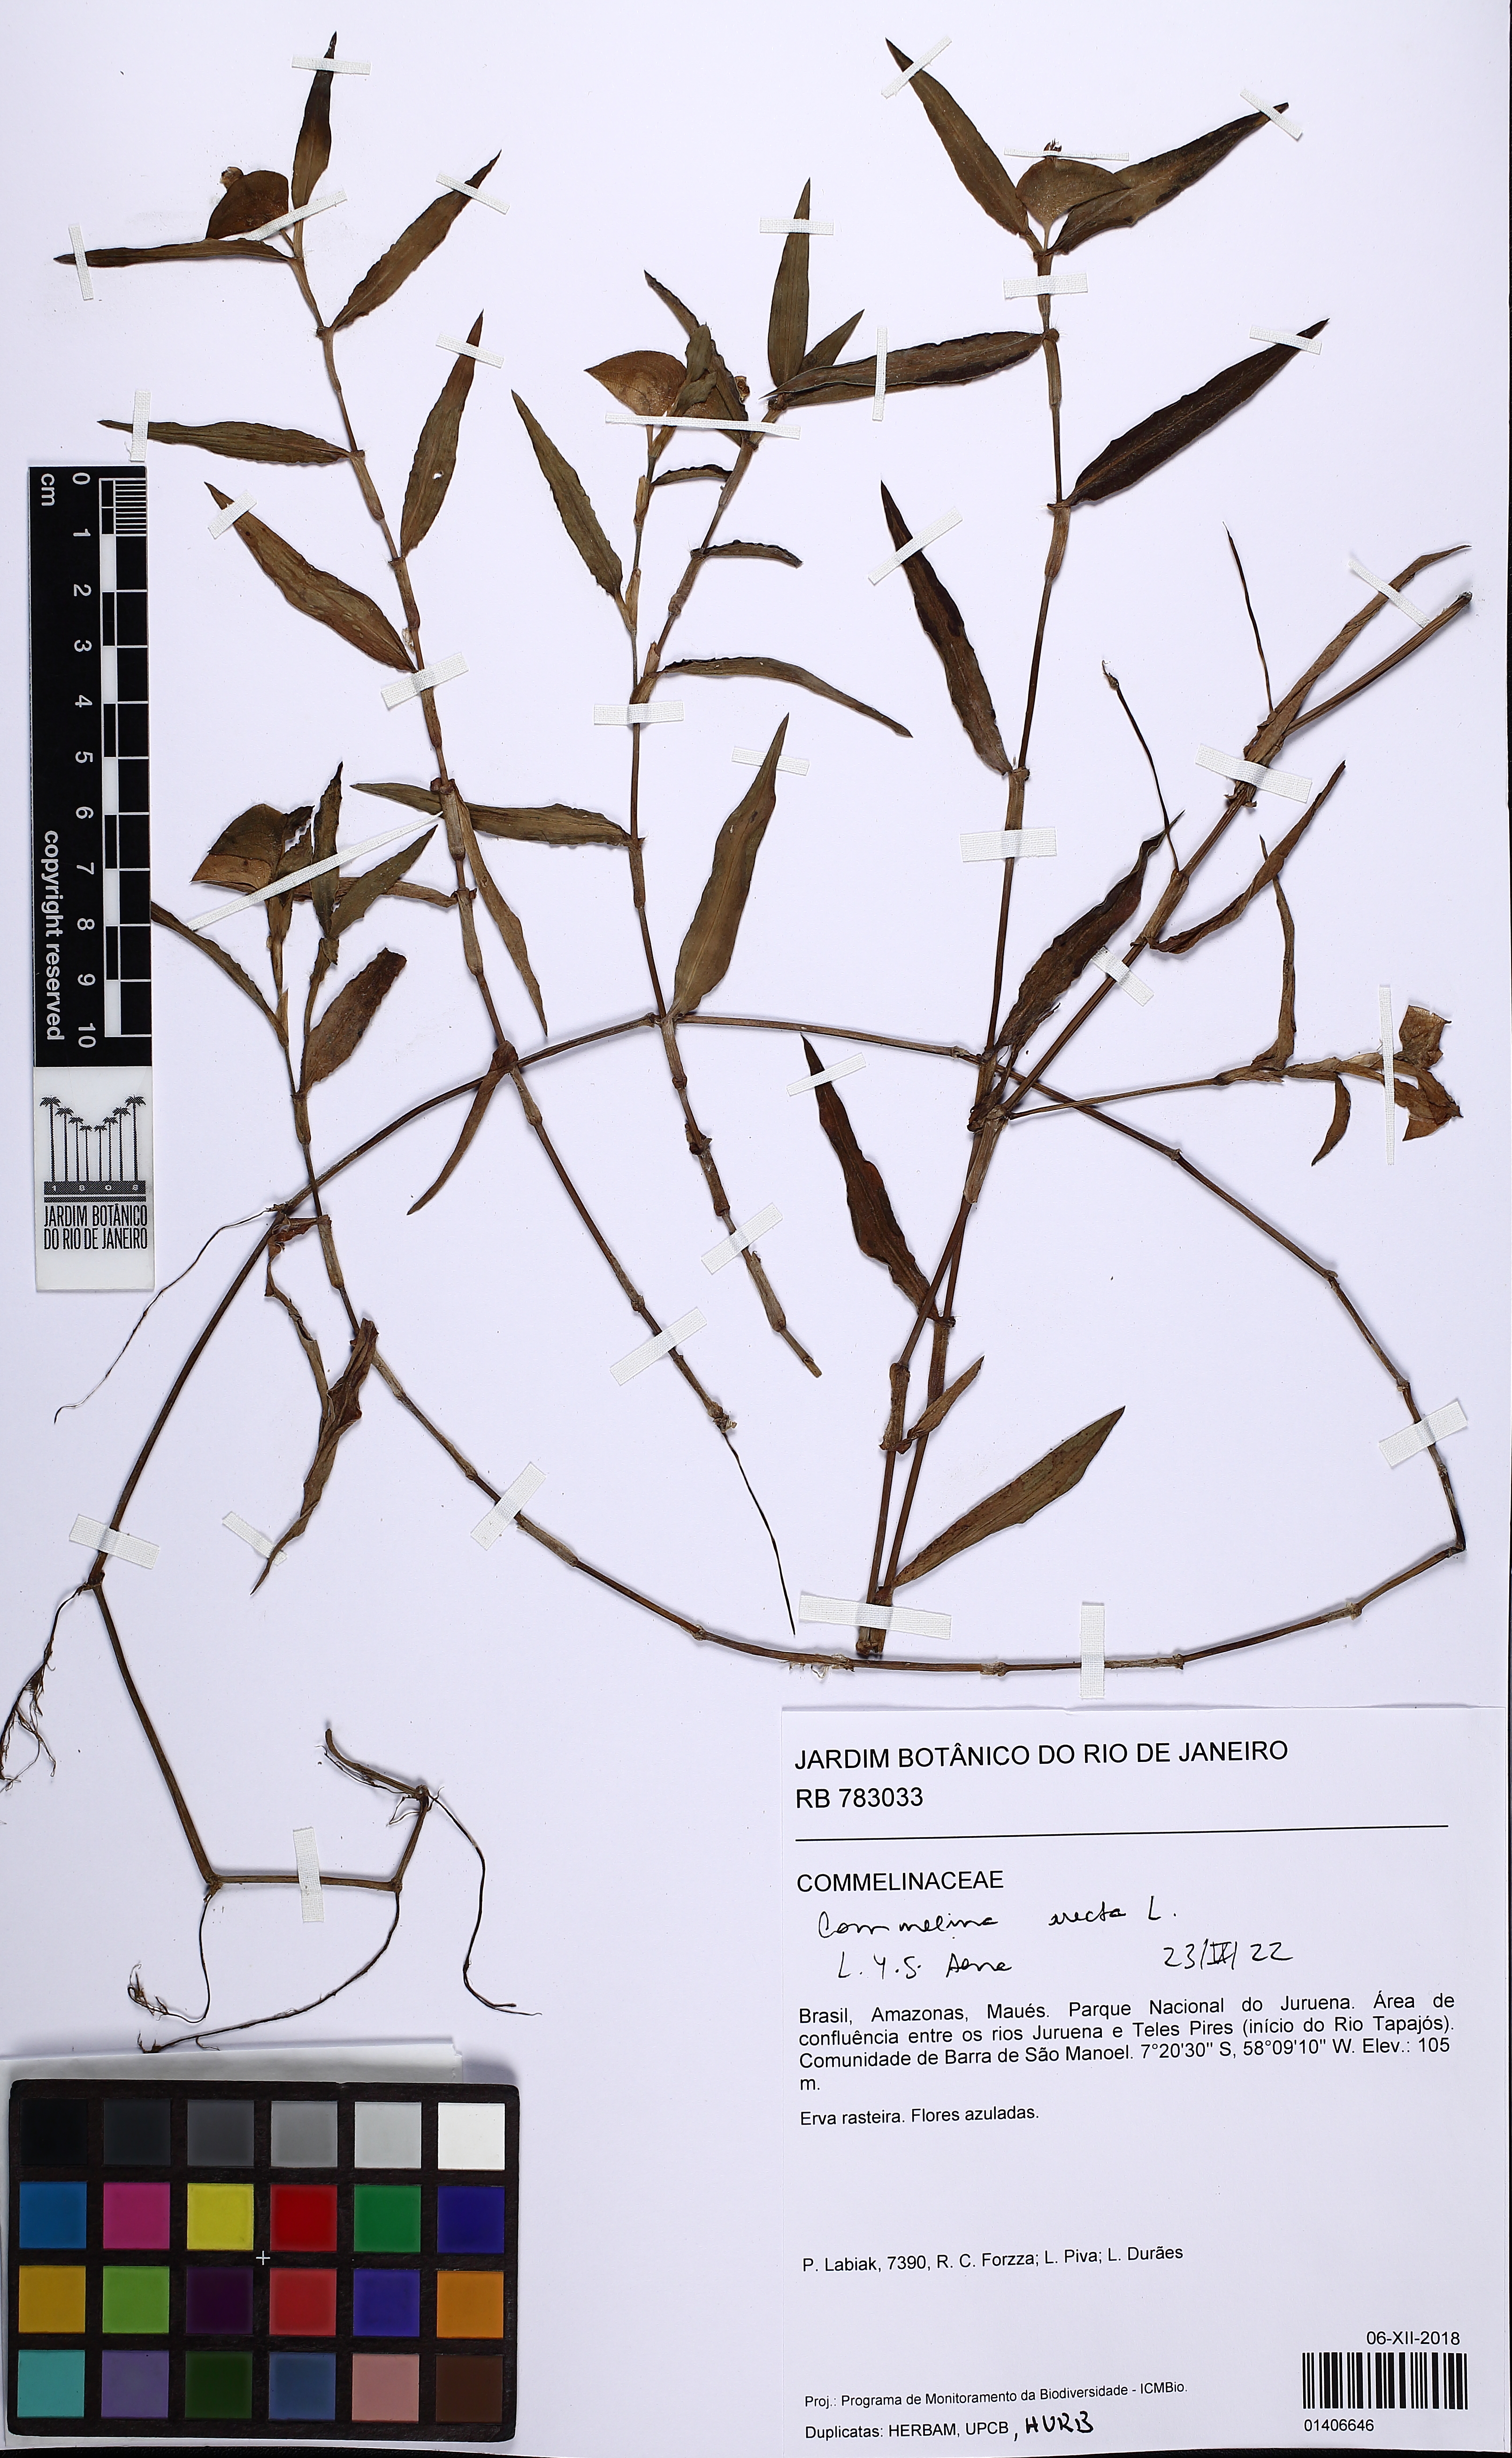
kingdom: Plantae
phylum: Tracheophyta
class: Liliopsida
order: Commelinales
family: Commelinaceae
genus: Commelina
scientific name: Commelina erecta
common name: Blousel blommetjie
